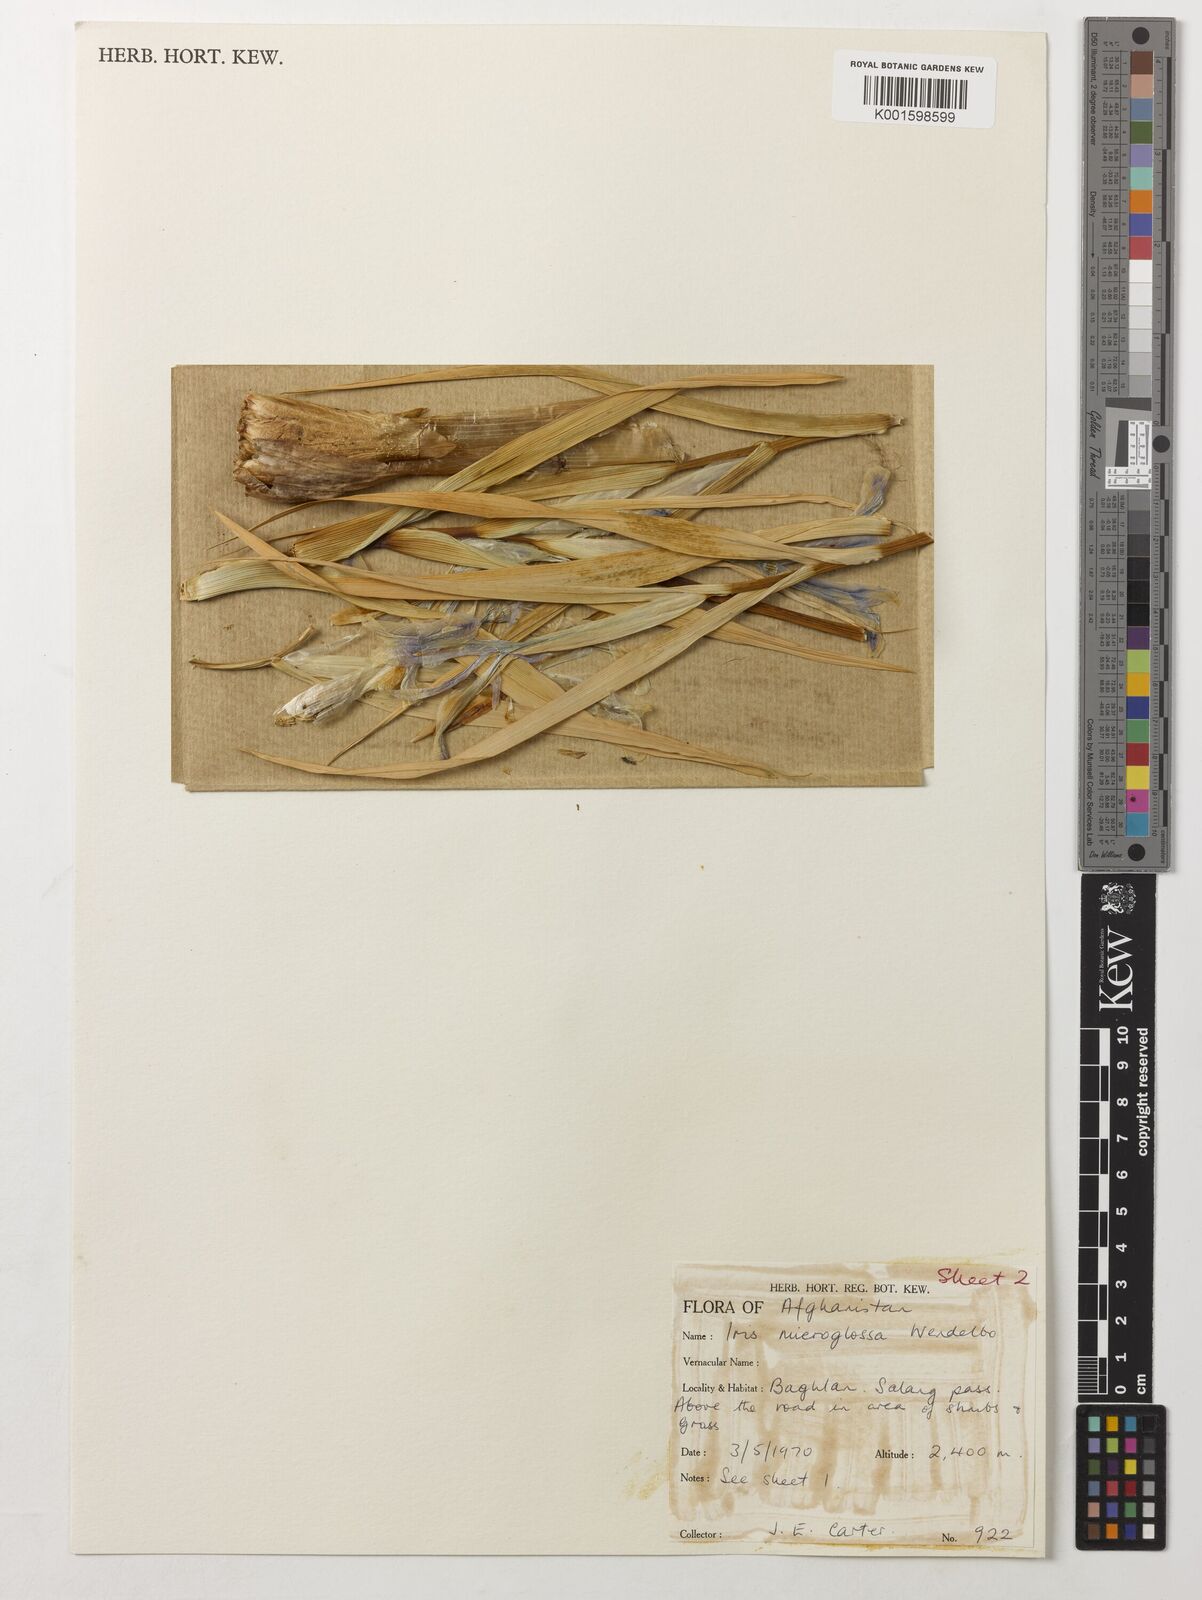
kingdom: Plantae
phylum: Tracheophyta
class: Liliopsida
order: Asparagales
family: Iridaceae
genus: Iris
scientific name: Iris microglossa
